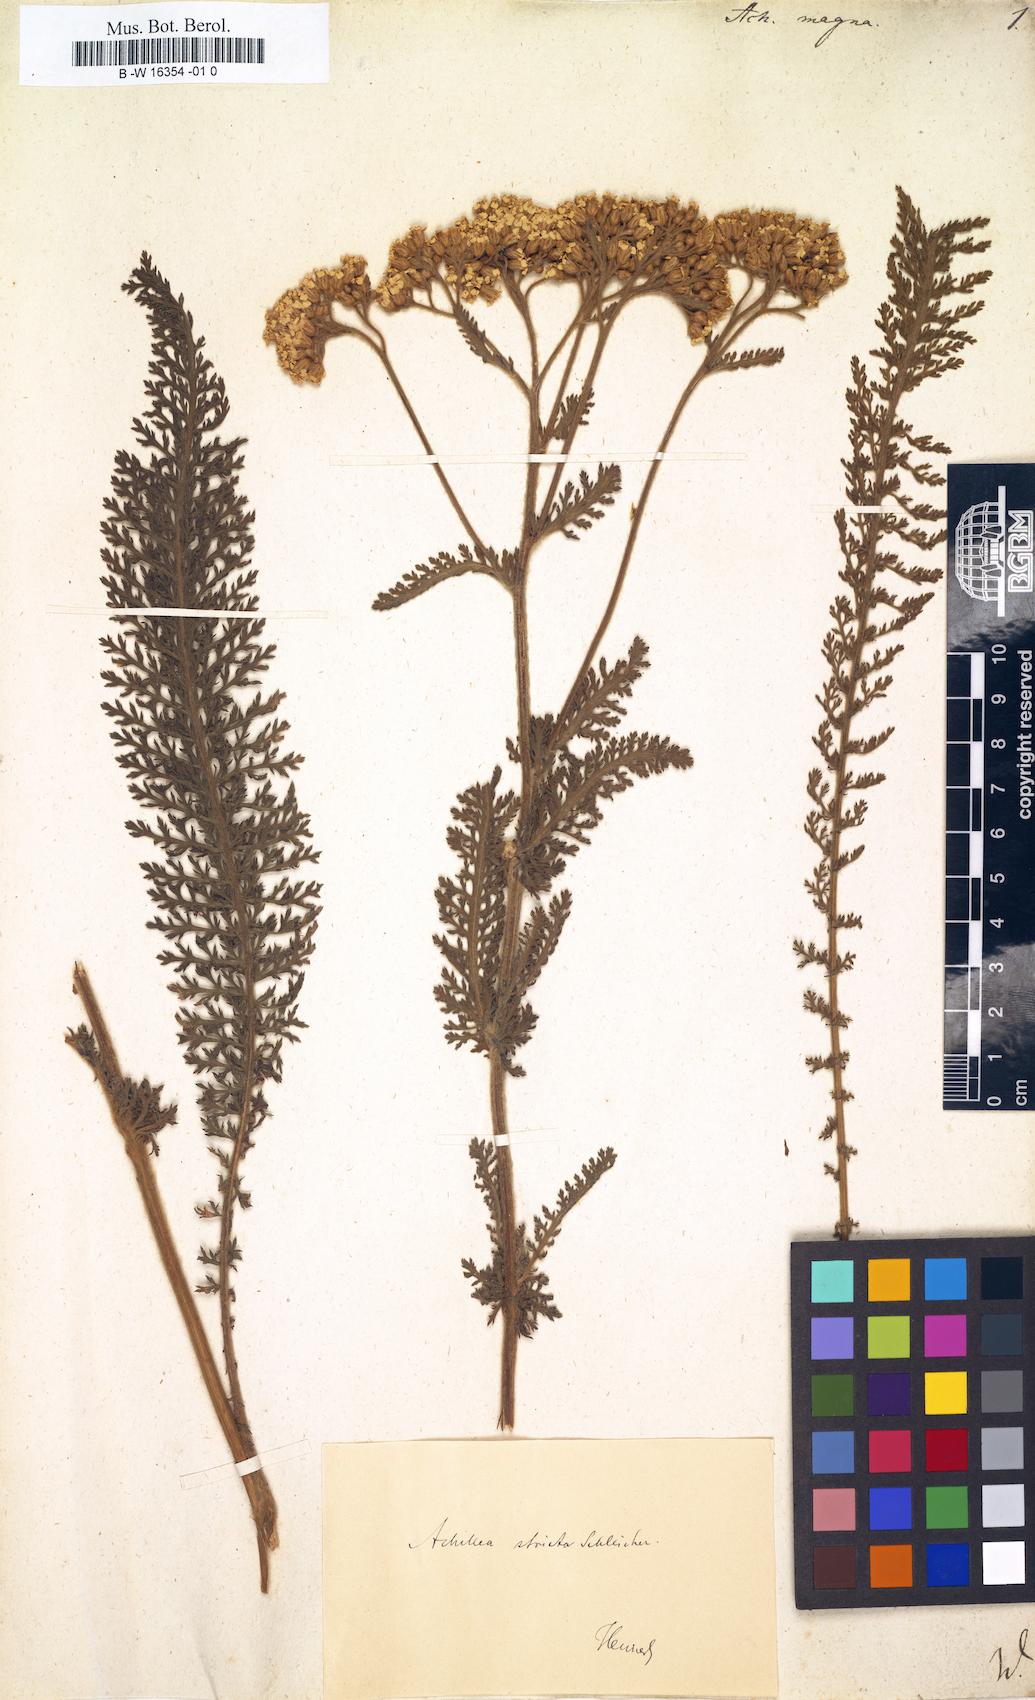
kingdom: Plantae
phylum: Tracheophyta
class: Magnoliopsida
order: Asterales
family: Asteraceae
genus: Achillea
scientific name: Achillea millefolium
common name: Yarrow
